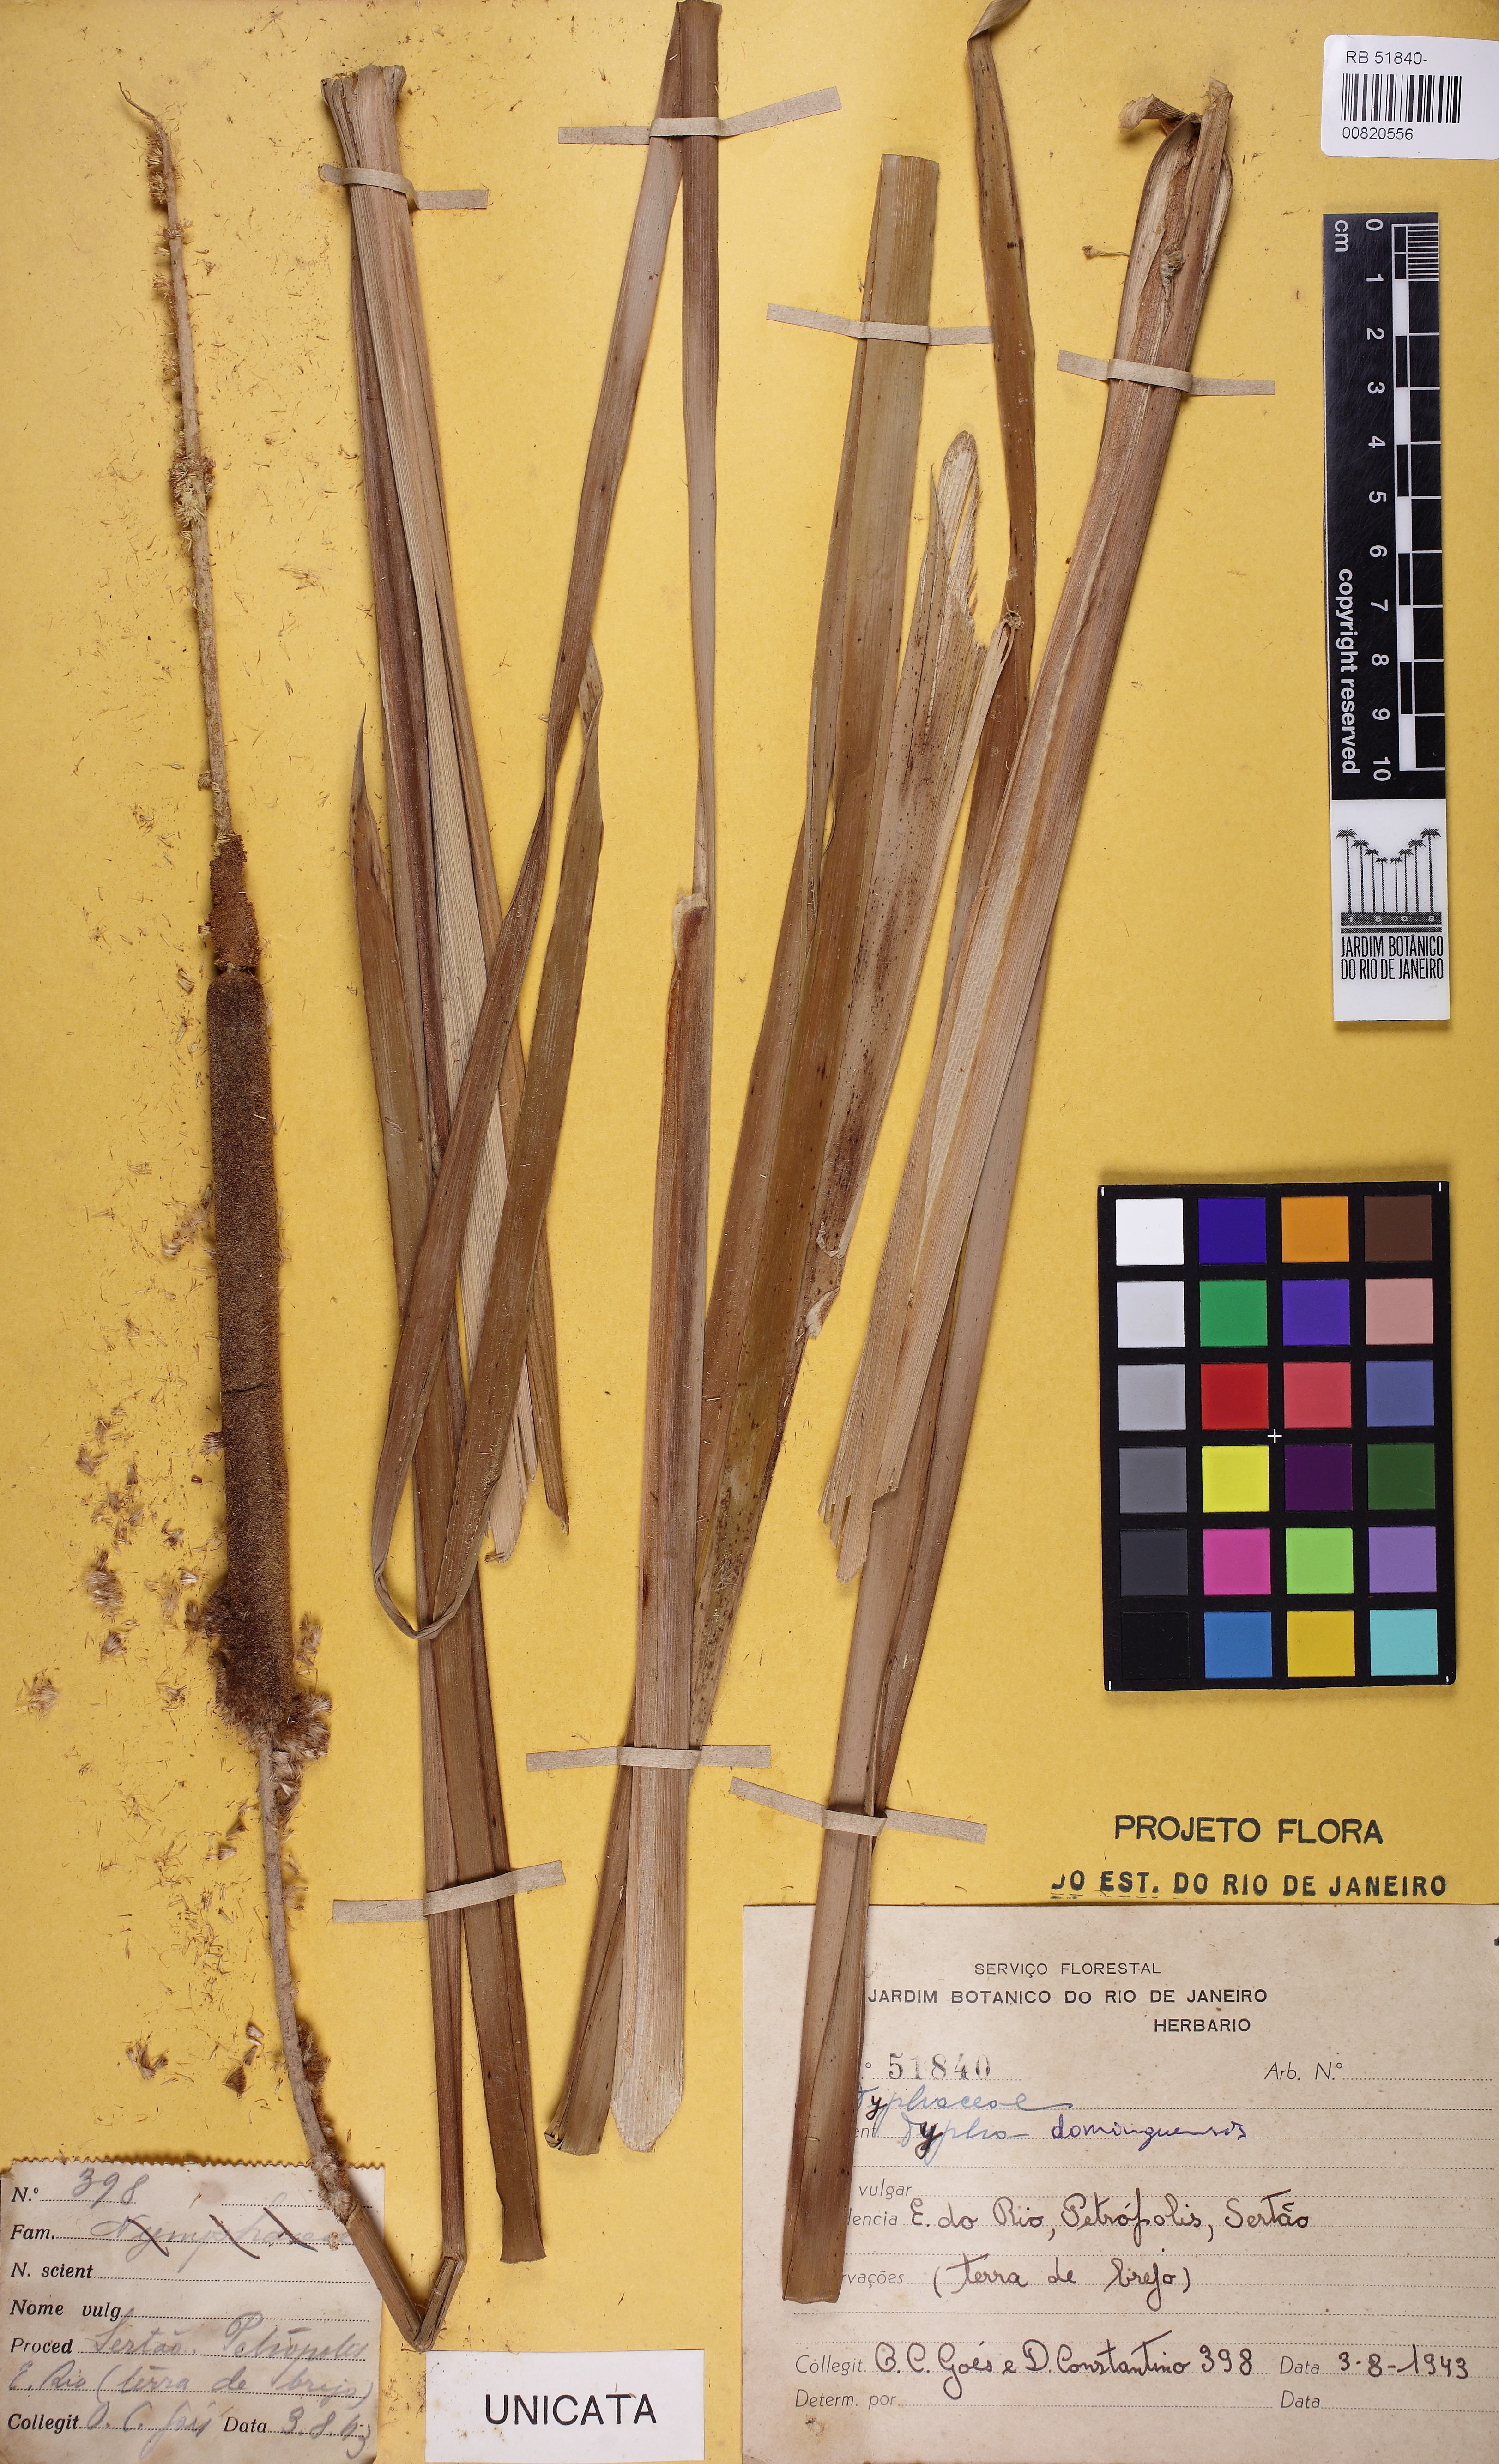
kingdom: Plantae
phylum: Tracheophyta
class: Liliopsida
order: Poales
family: Typhaceae
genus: Typha
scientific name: Typha domingensis
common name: Southern cattail
